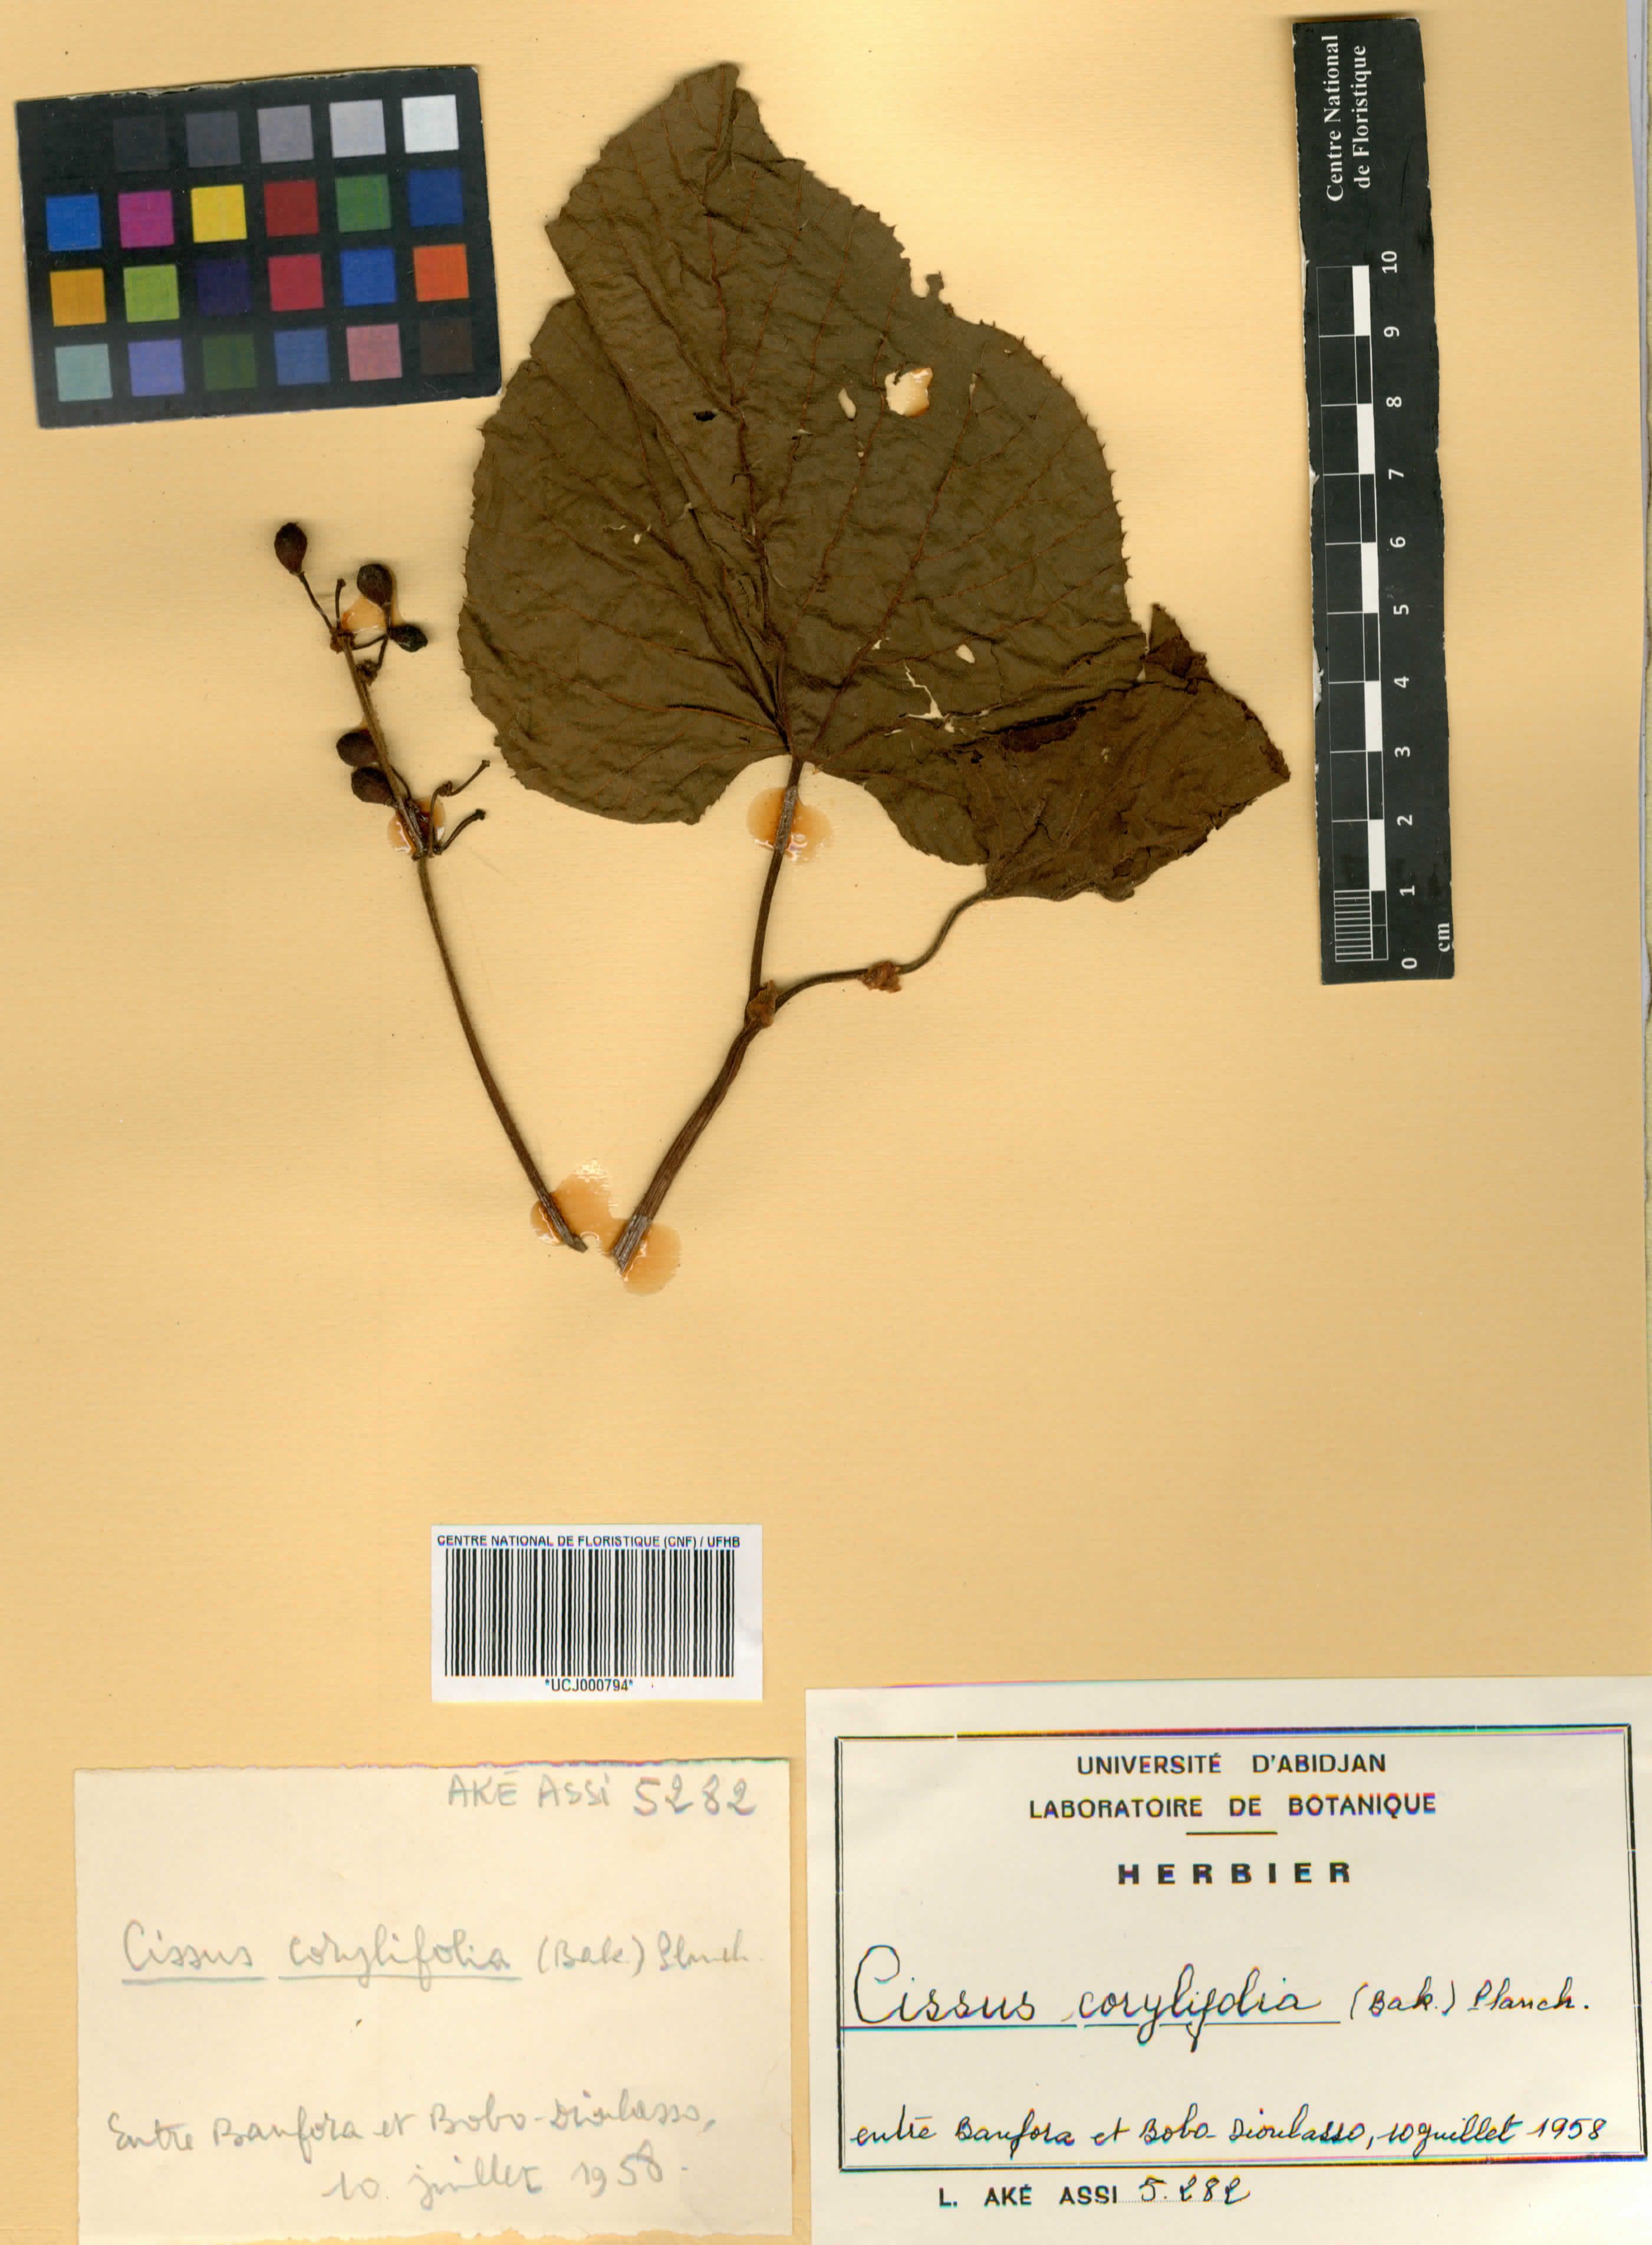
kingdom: Plantae
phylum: Tracheophyta
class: Magnoliopsida
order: Vitales
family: Vitaceae
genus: Cissus
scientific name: Cissus corylifolia
